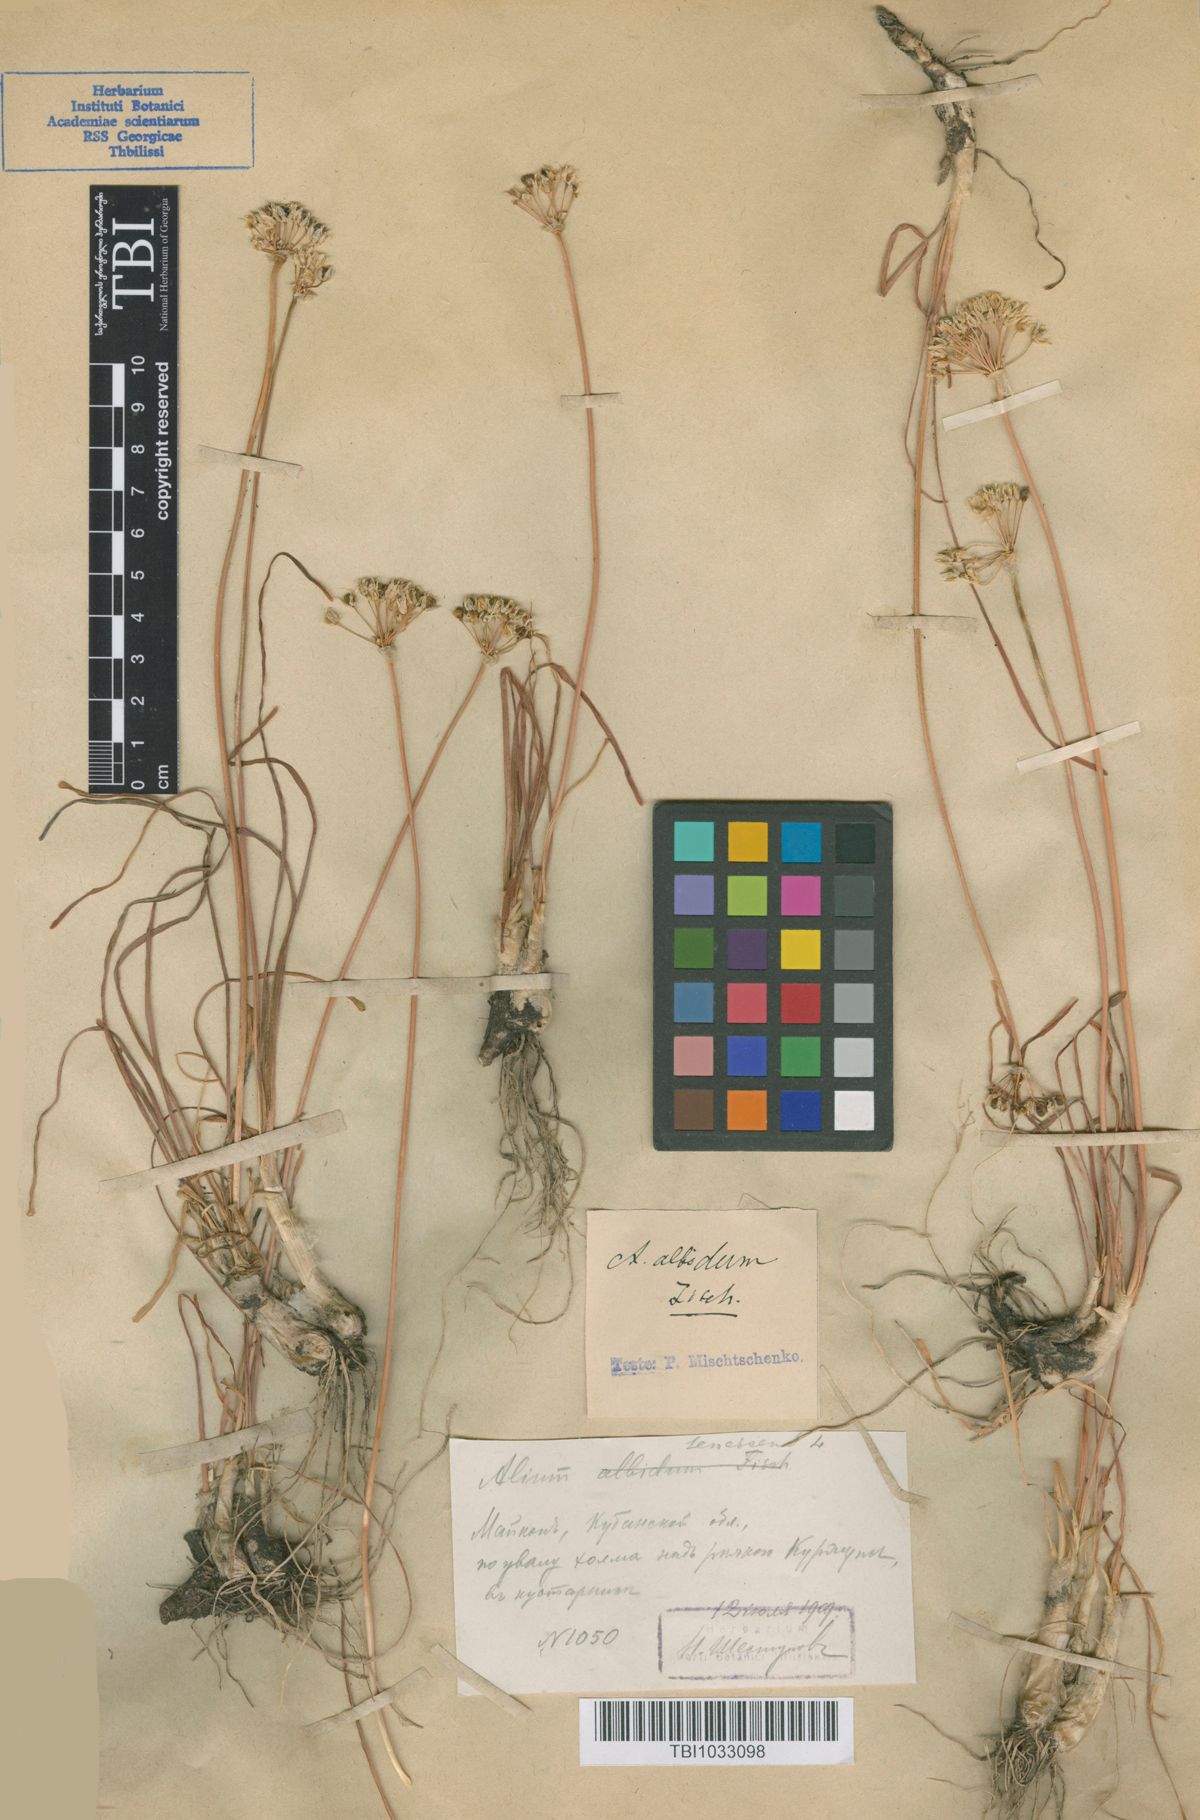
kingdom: Plantae
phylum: Tracheophyta
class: Liliopsida
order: Asparagales
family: Amaryllidaceae
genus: Allium
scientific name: Allium denudatum
